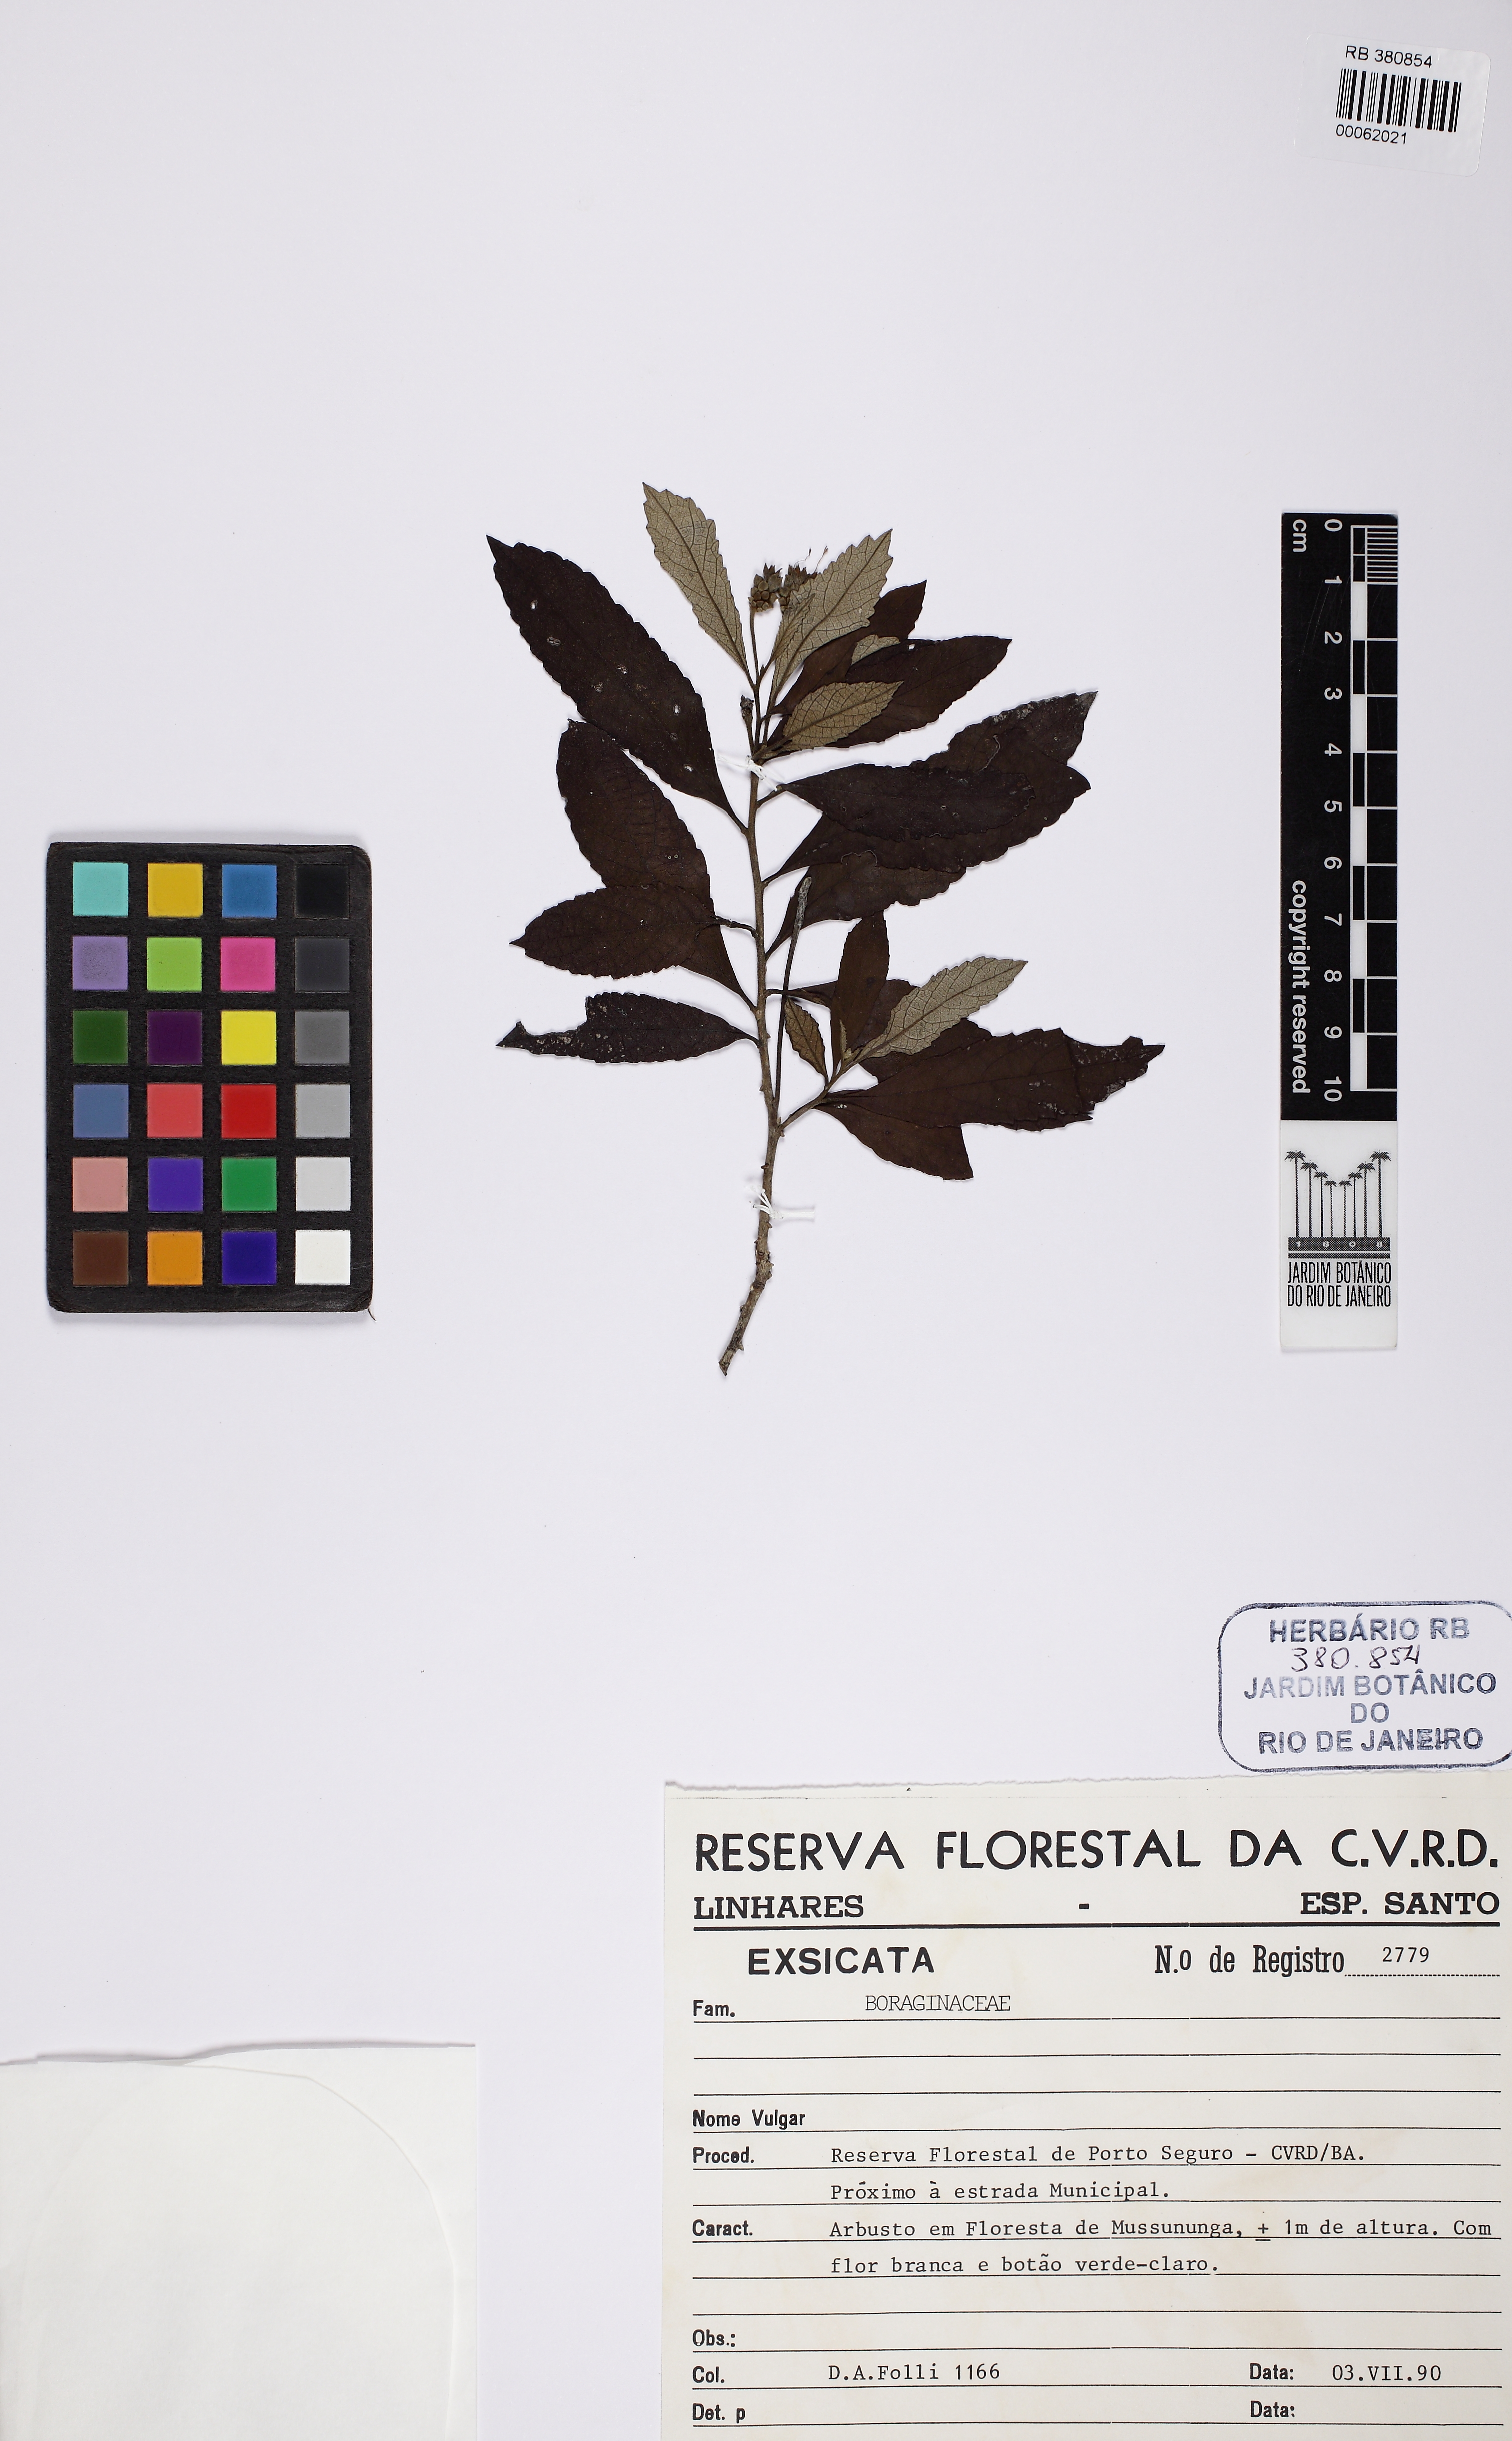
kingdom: Plantae
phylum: Tracheophyta
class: Magnoliopsida
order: Boraginales
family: Cordiaceae
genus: Varronia
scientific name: Varronia
